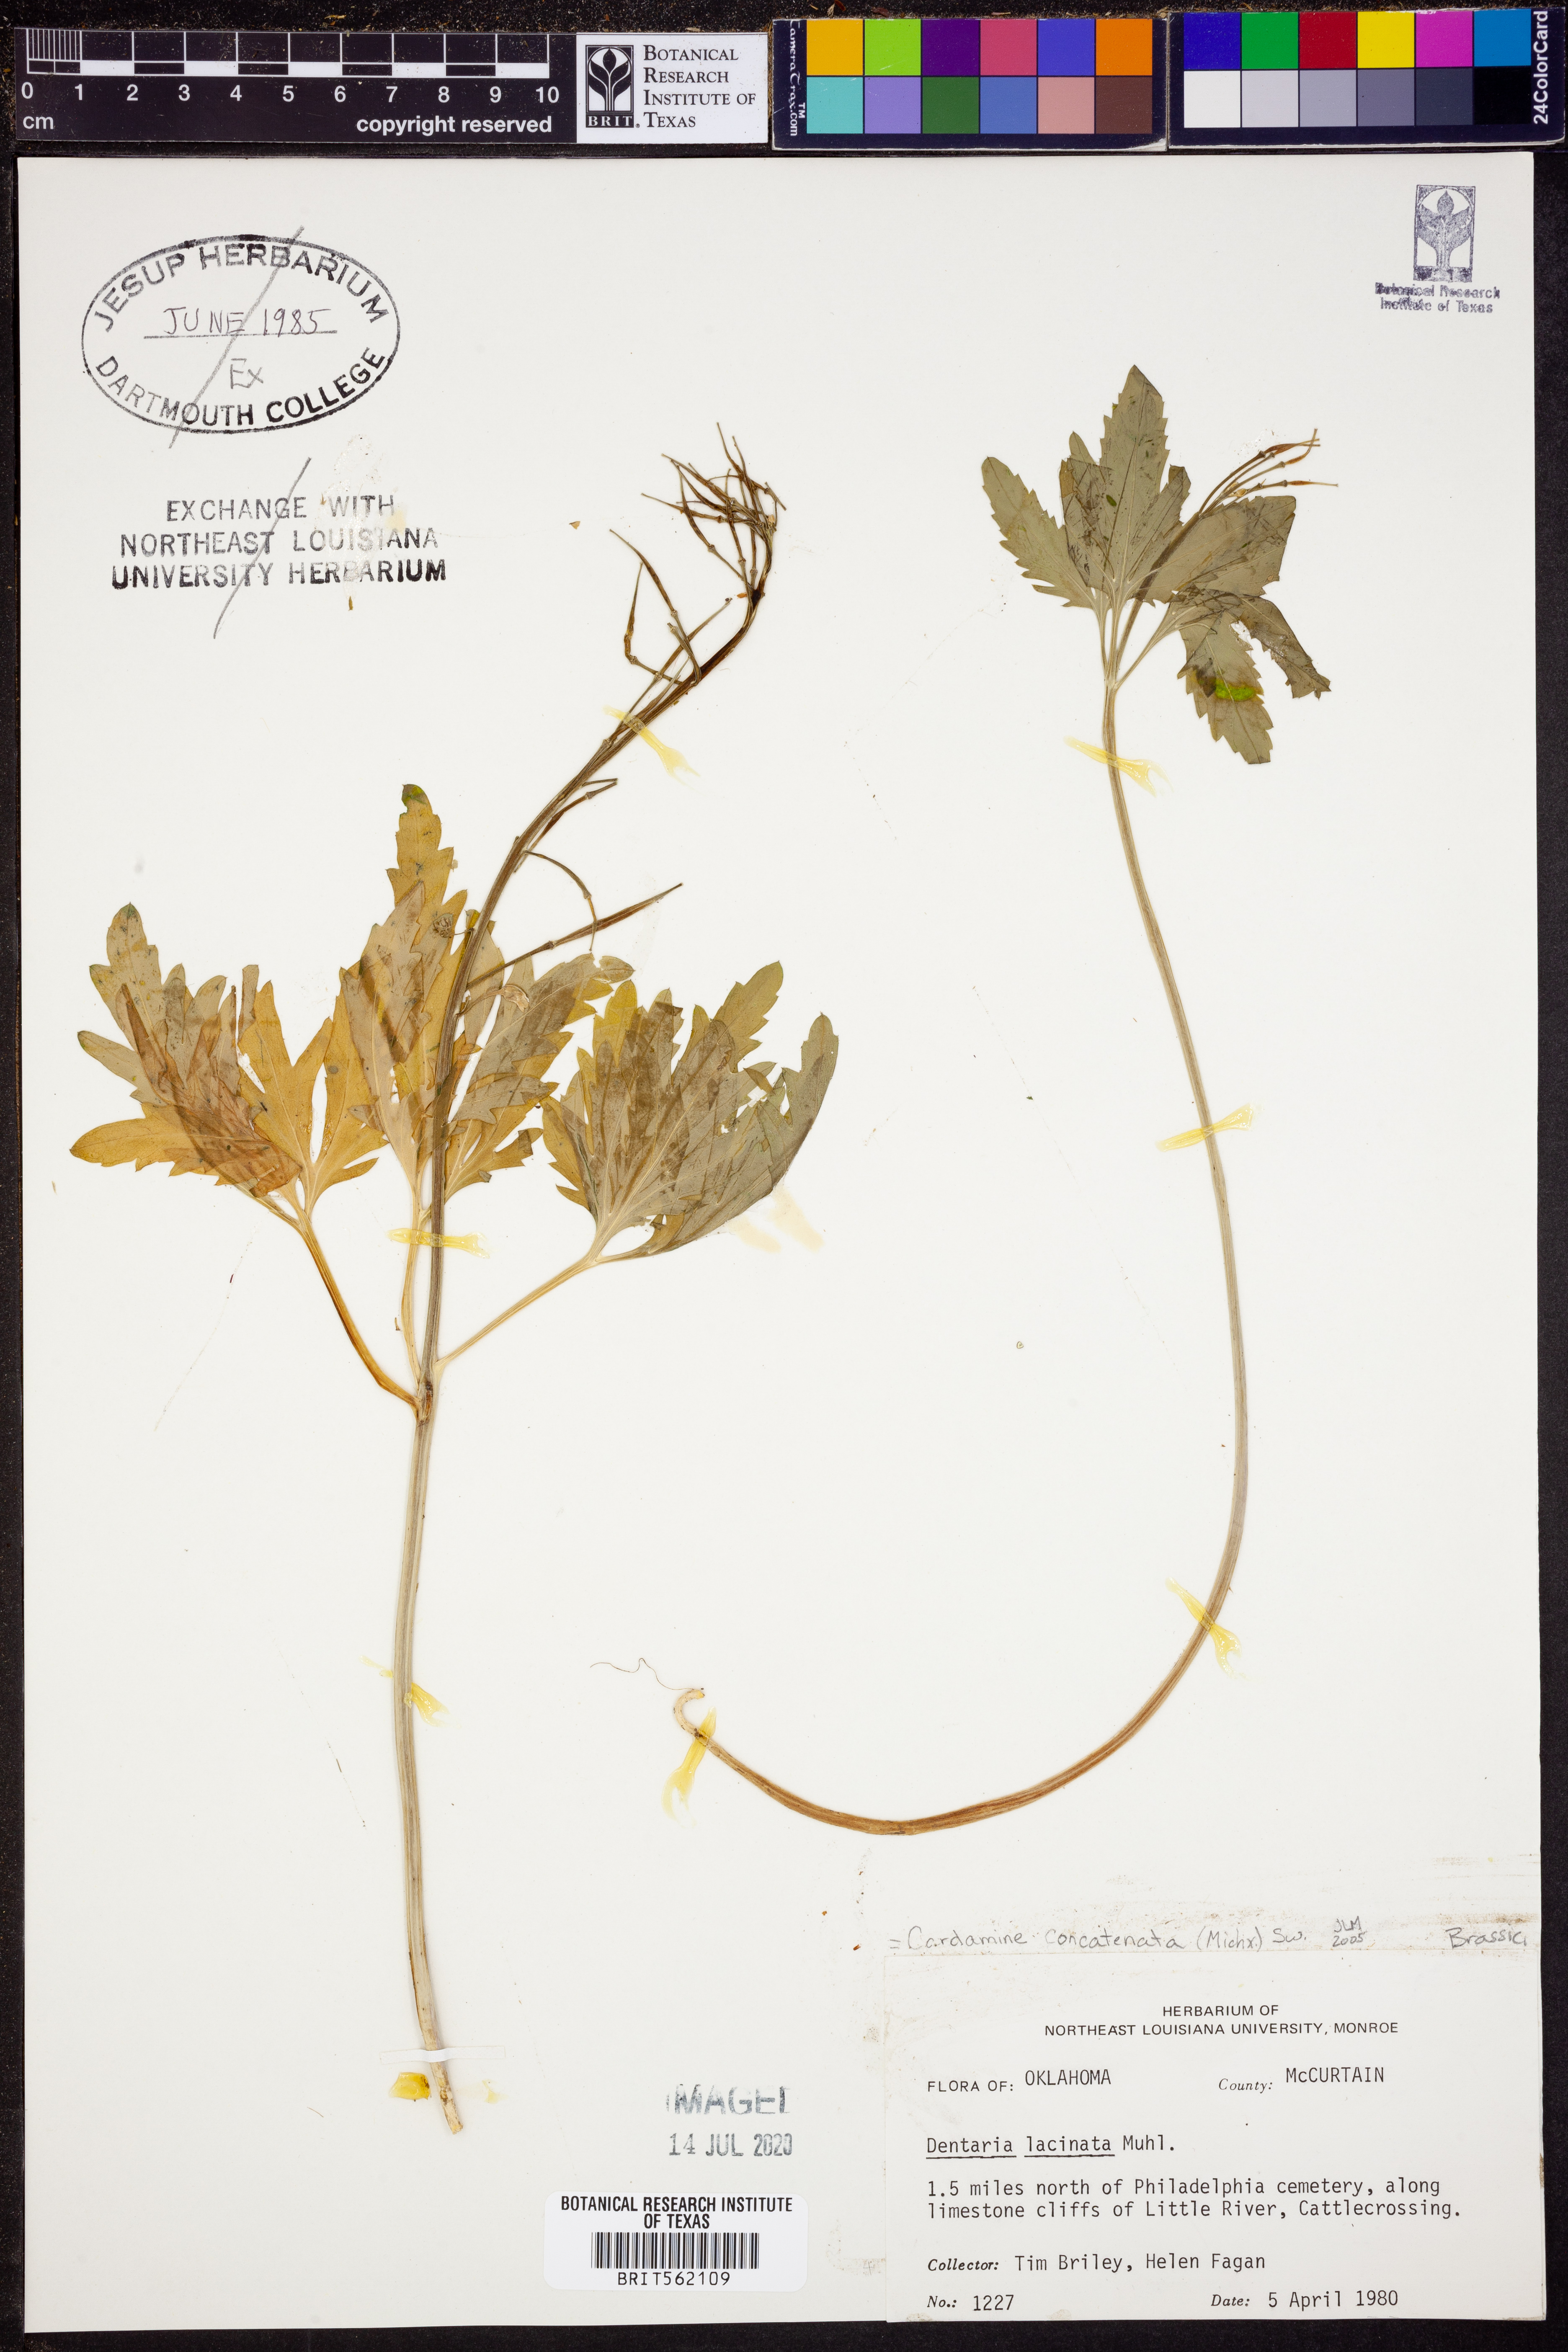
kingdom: Plantae
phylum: Tracheophyta
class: Magnoliopsida
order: Brassicales
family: Brassicaceae
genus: Cardamine
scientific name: Cardamine concatenata
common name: Cut-leaf toothcup
